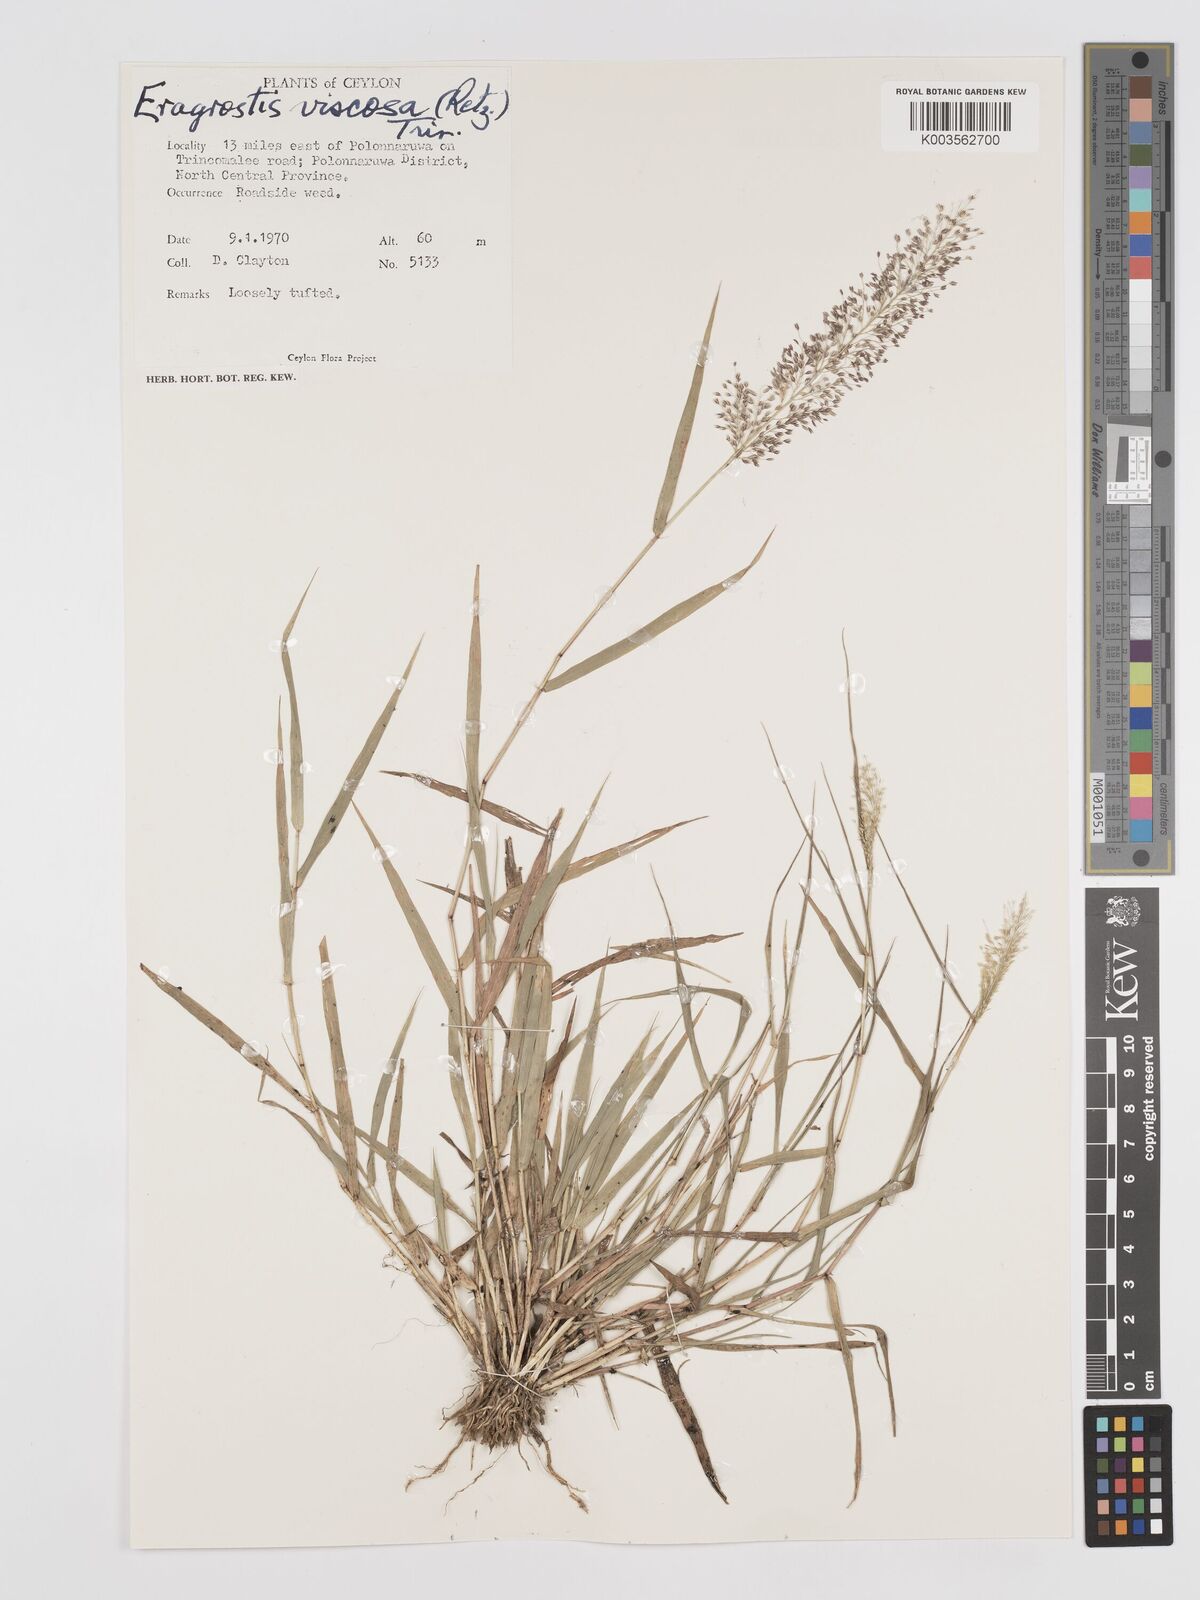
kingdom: Plantae
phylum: Tracheophyta
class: Liliopsida
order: Poales
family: Poaceae
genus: Eragrostis
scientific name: Eragrostis tenella
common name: Japanese lovegrass
